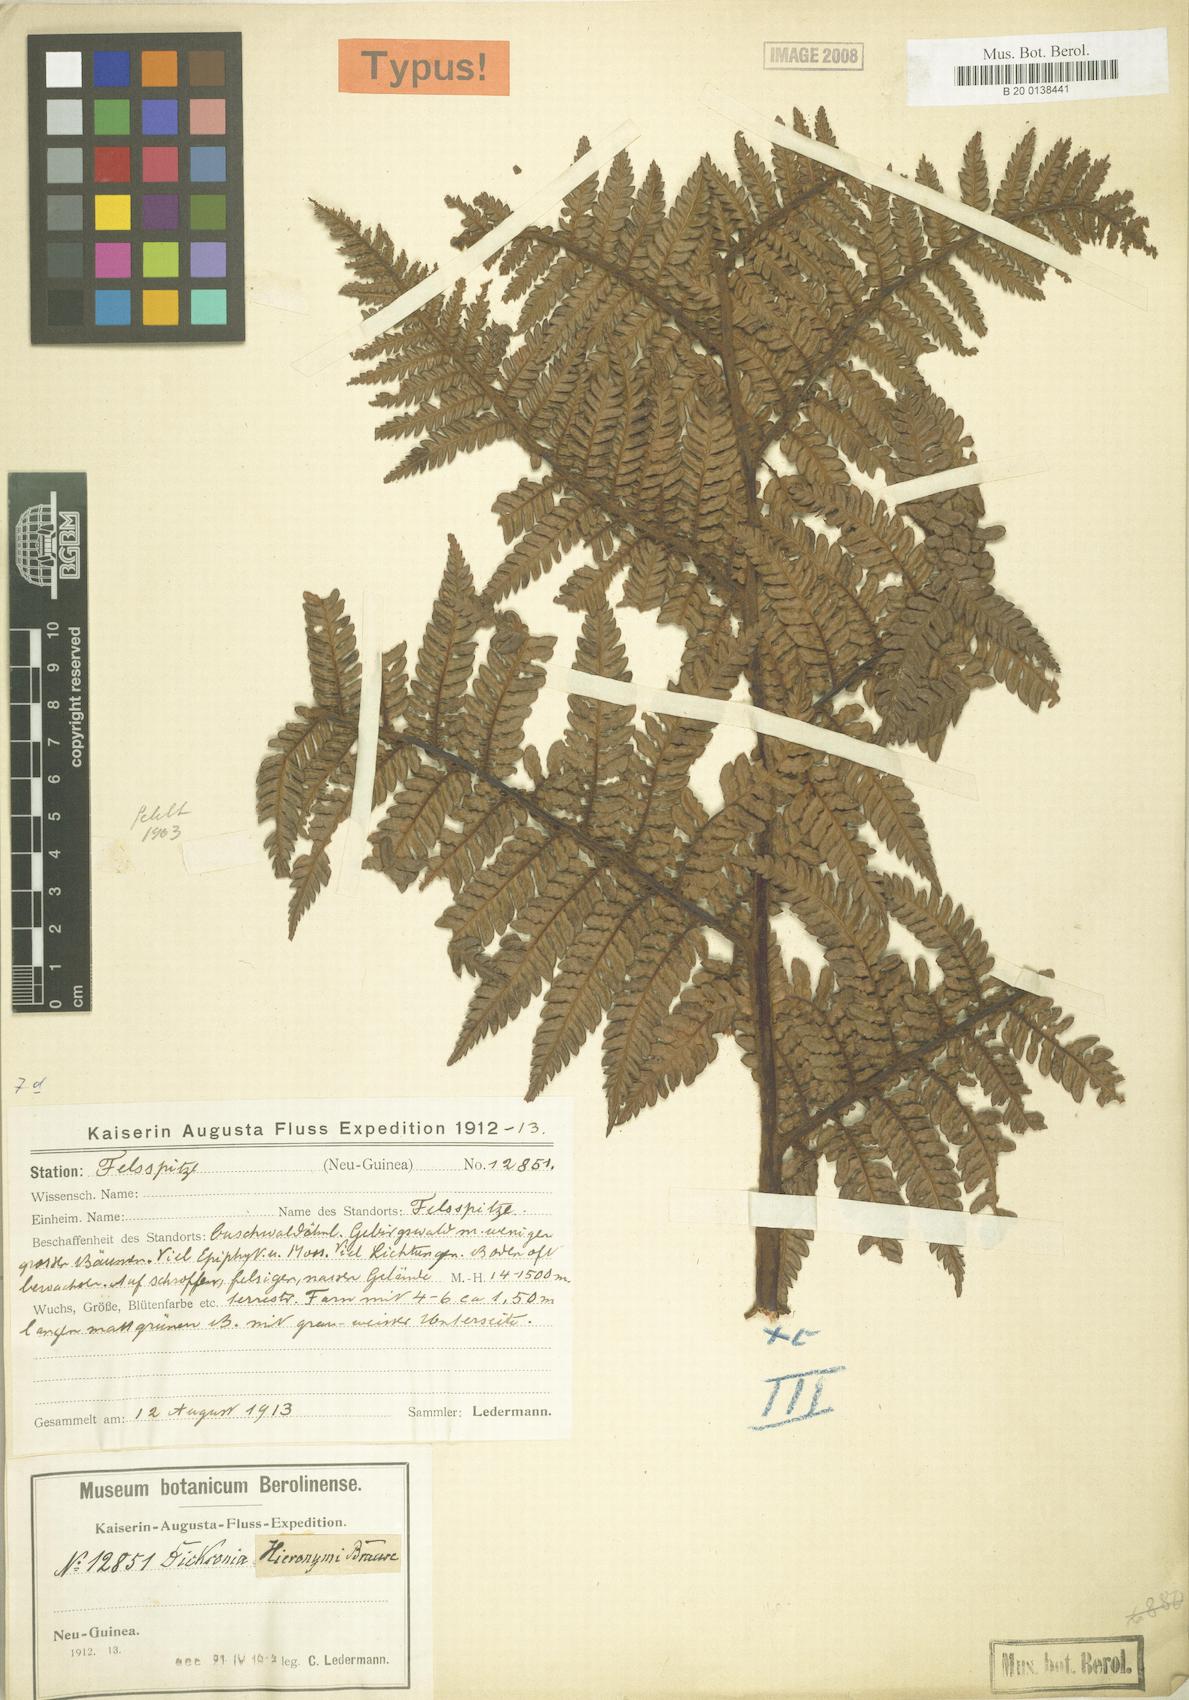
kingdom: Plantae
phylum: Tracheophyta
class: Polypodiopsida
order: Cyatheales
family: Dicksoniaceae
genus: Dicksonia
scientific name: Dicksonia hieronymi
